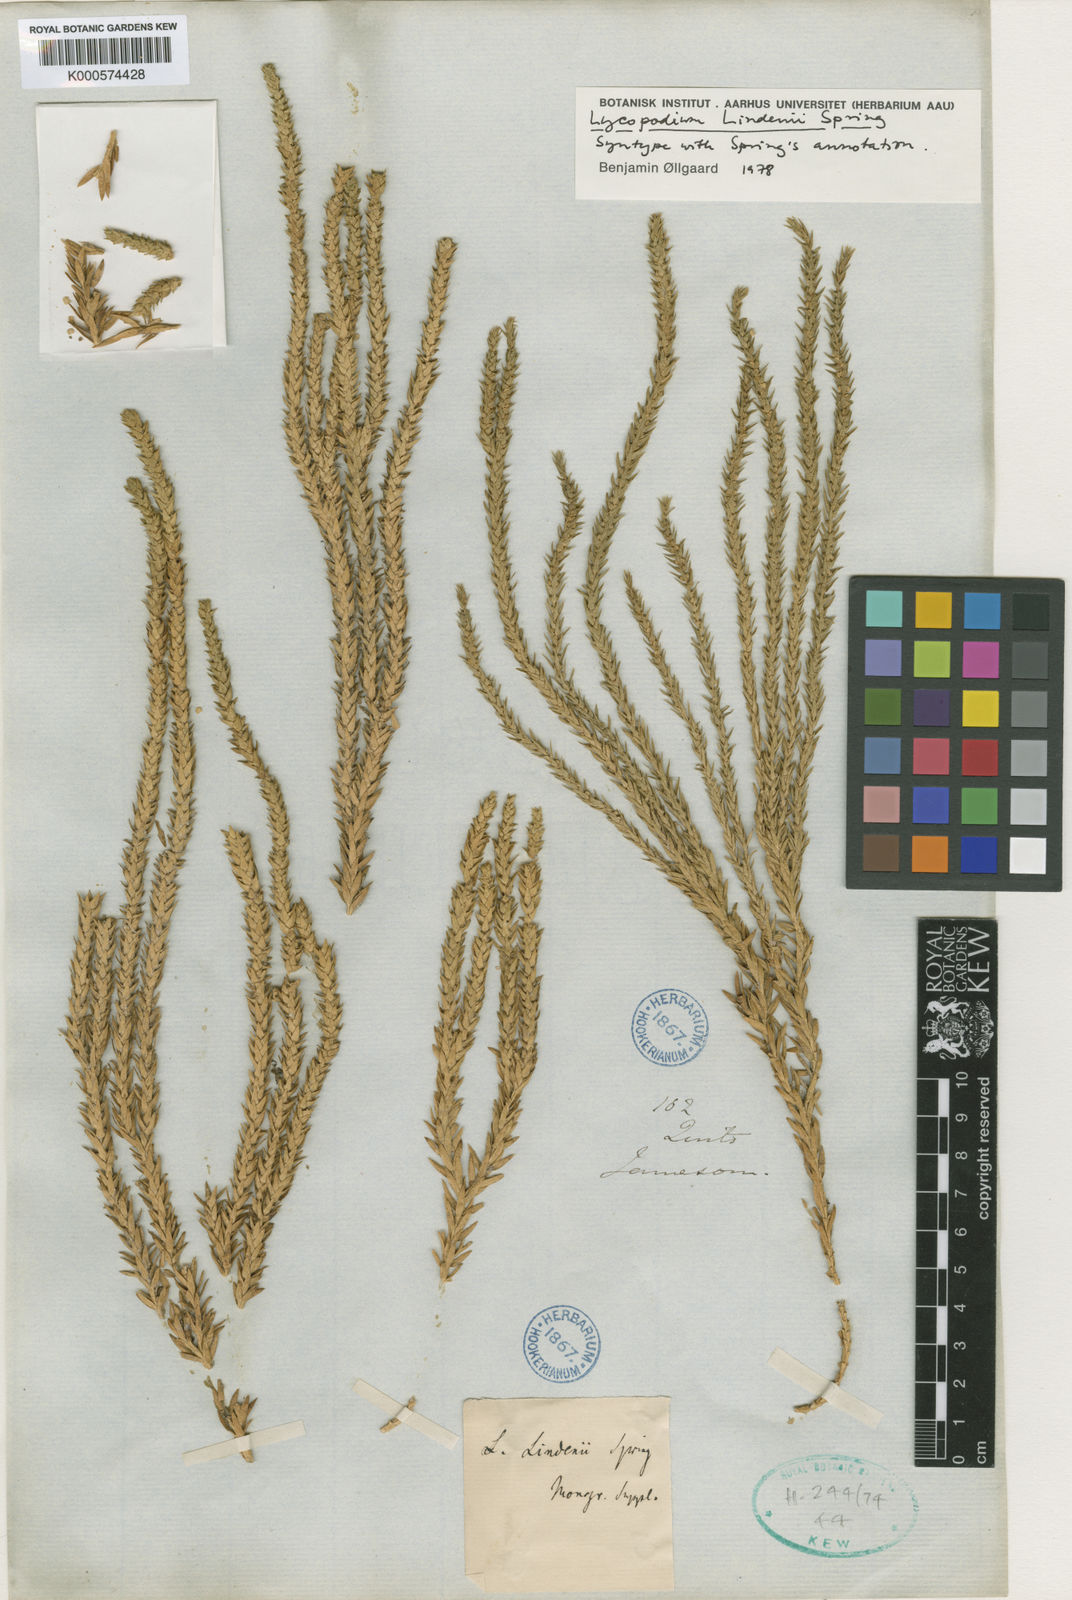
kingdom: Plantae
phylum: Tracheophyta
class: Lycopodiopsida
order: Lycopodiales
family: Lycopodiaceae
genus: Phlegmariurus
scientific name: Phlegmariurus lindenii
